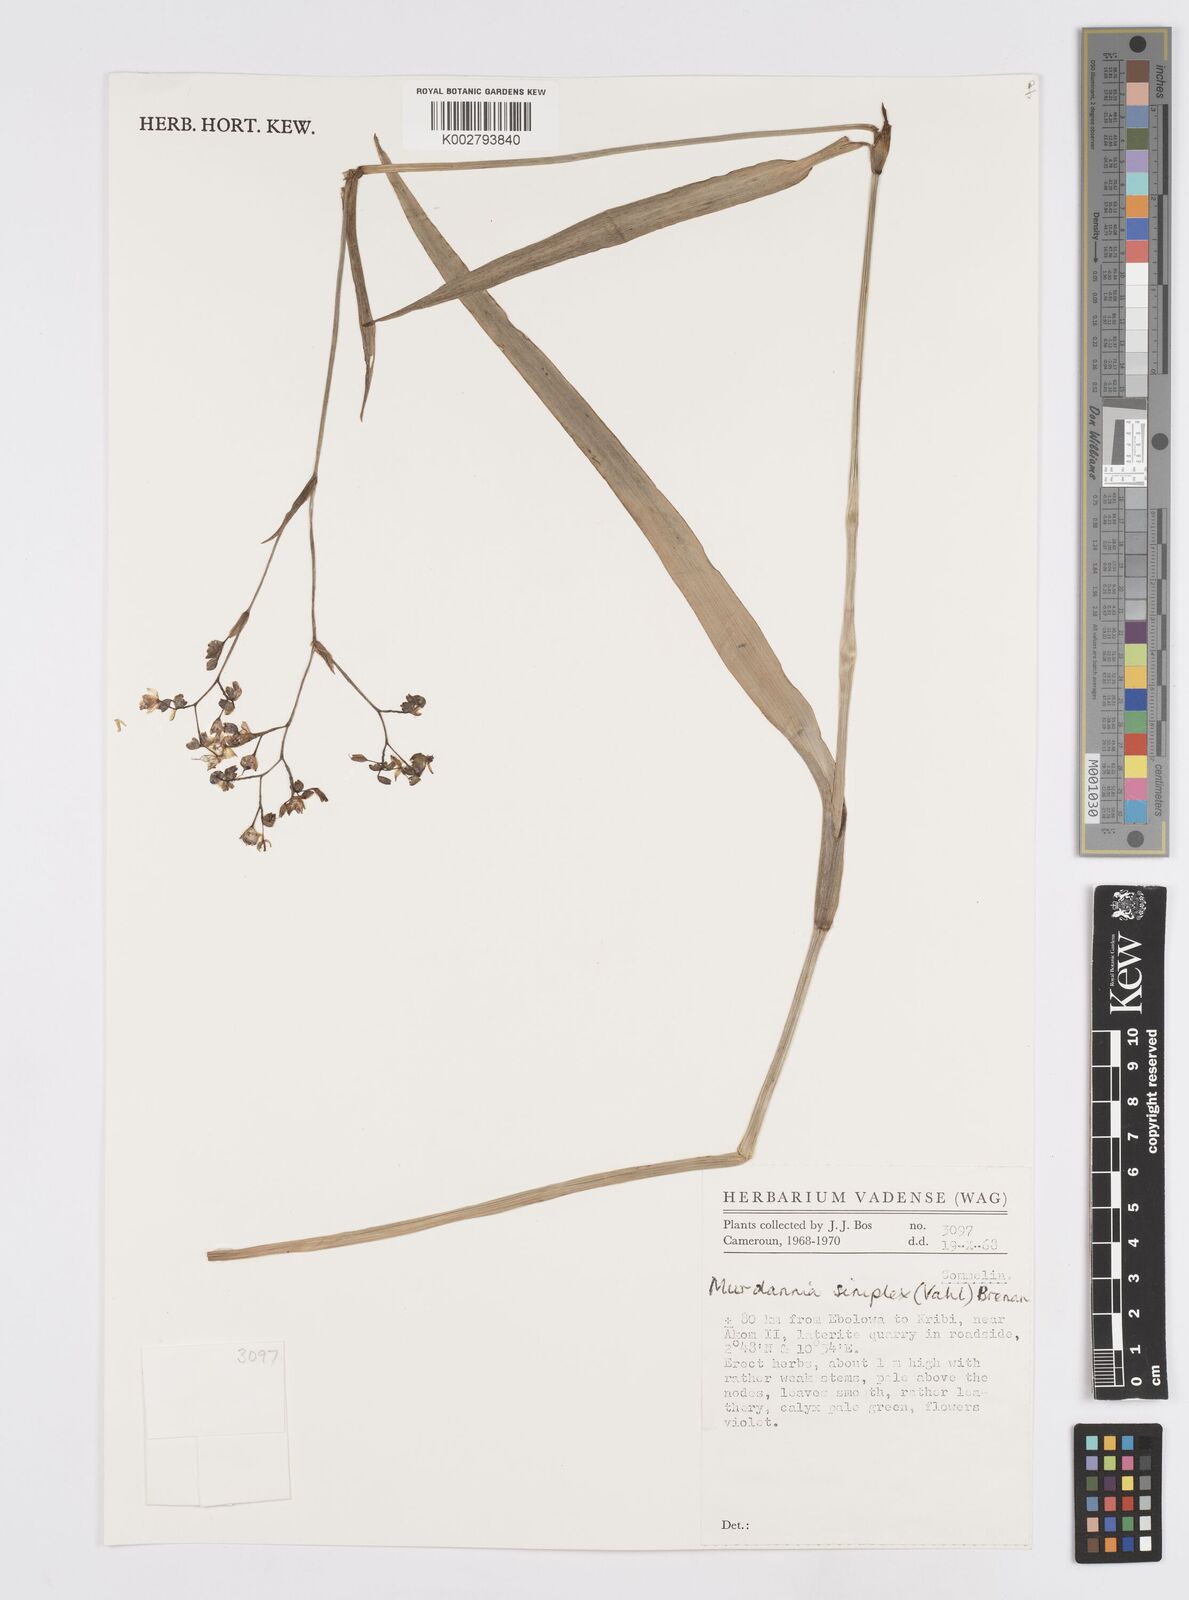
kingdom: Plantae
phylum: Tracheophyta
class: Liliopsida
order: Commelinales
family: Commelinaceae
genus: Murdannia
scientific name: Murdannia simplex
